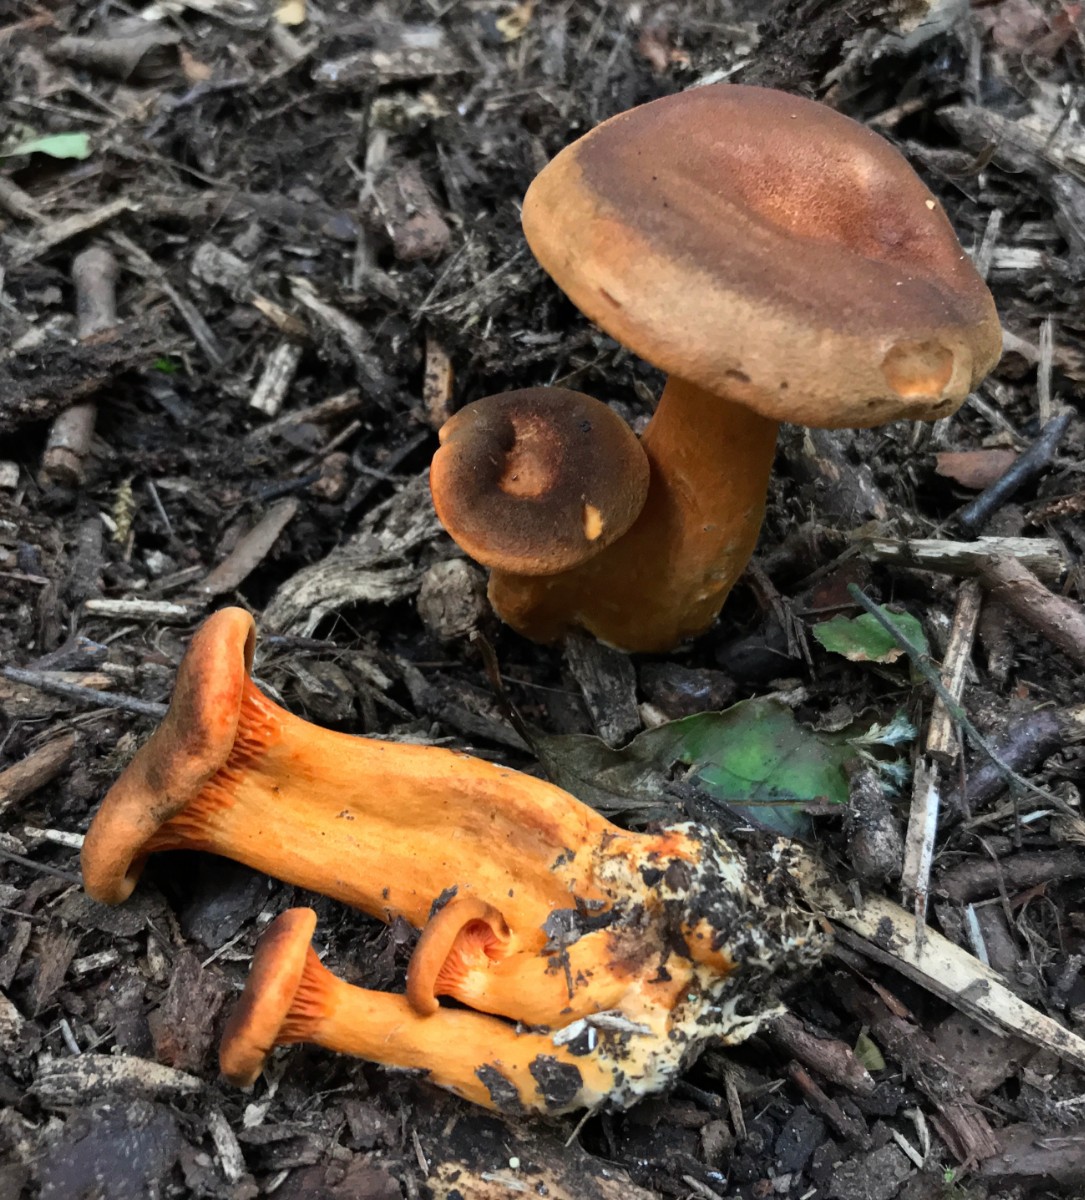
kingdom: Fungi
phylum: Basidiomycota
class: Agaricomycetes
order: Boletales
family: Hygrophoropsidaceae
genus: Hygrophoropsis
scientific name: Hygrophoropsis rufa
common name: brunfiltet orangekantarel
